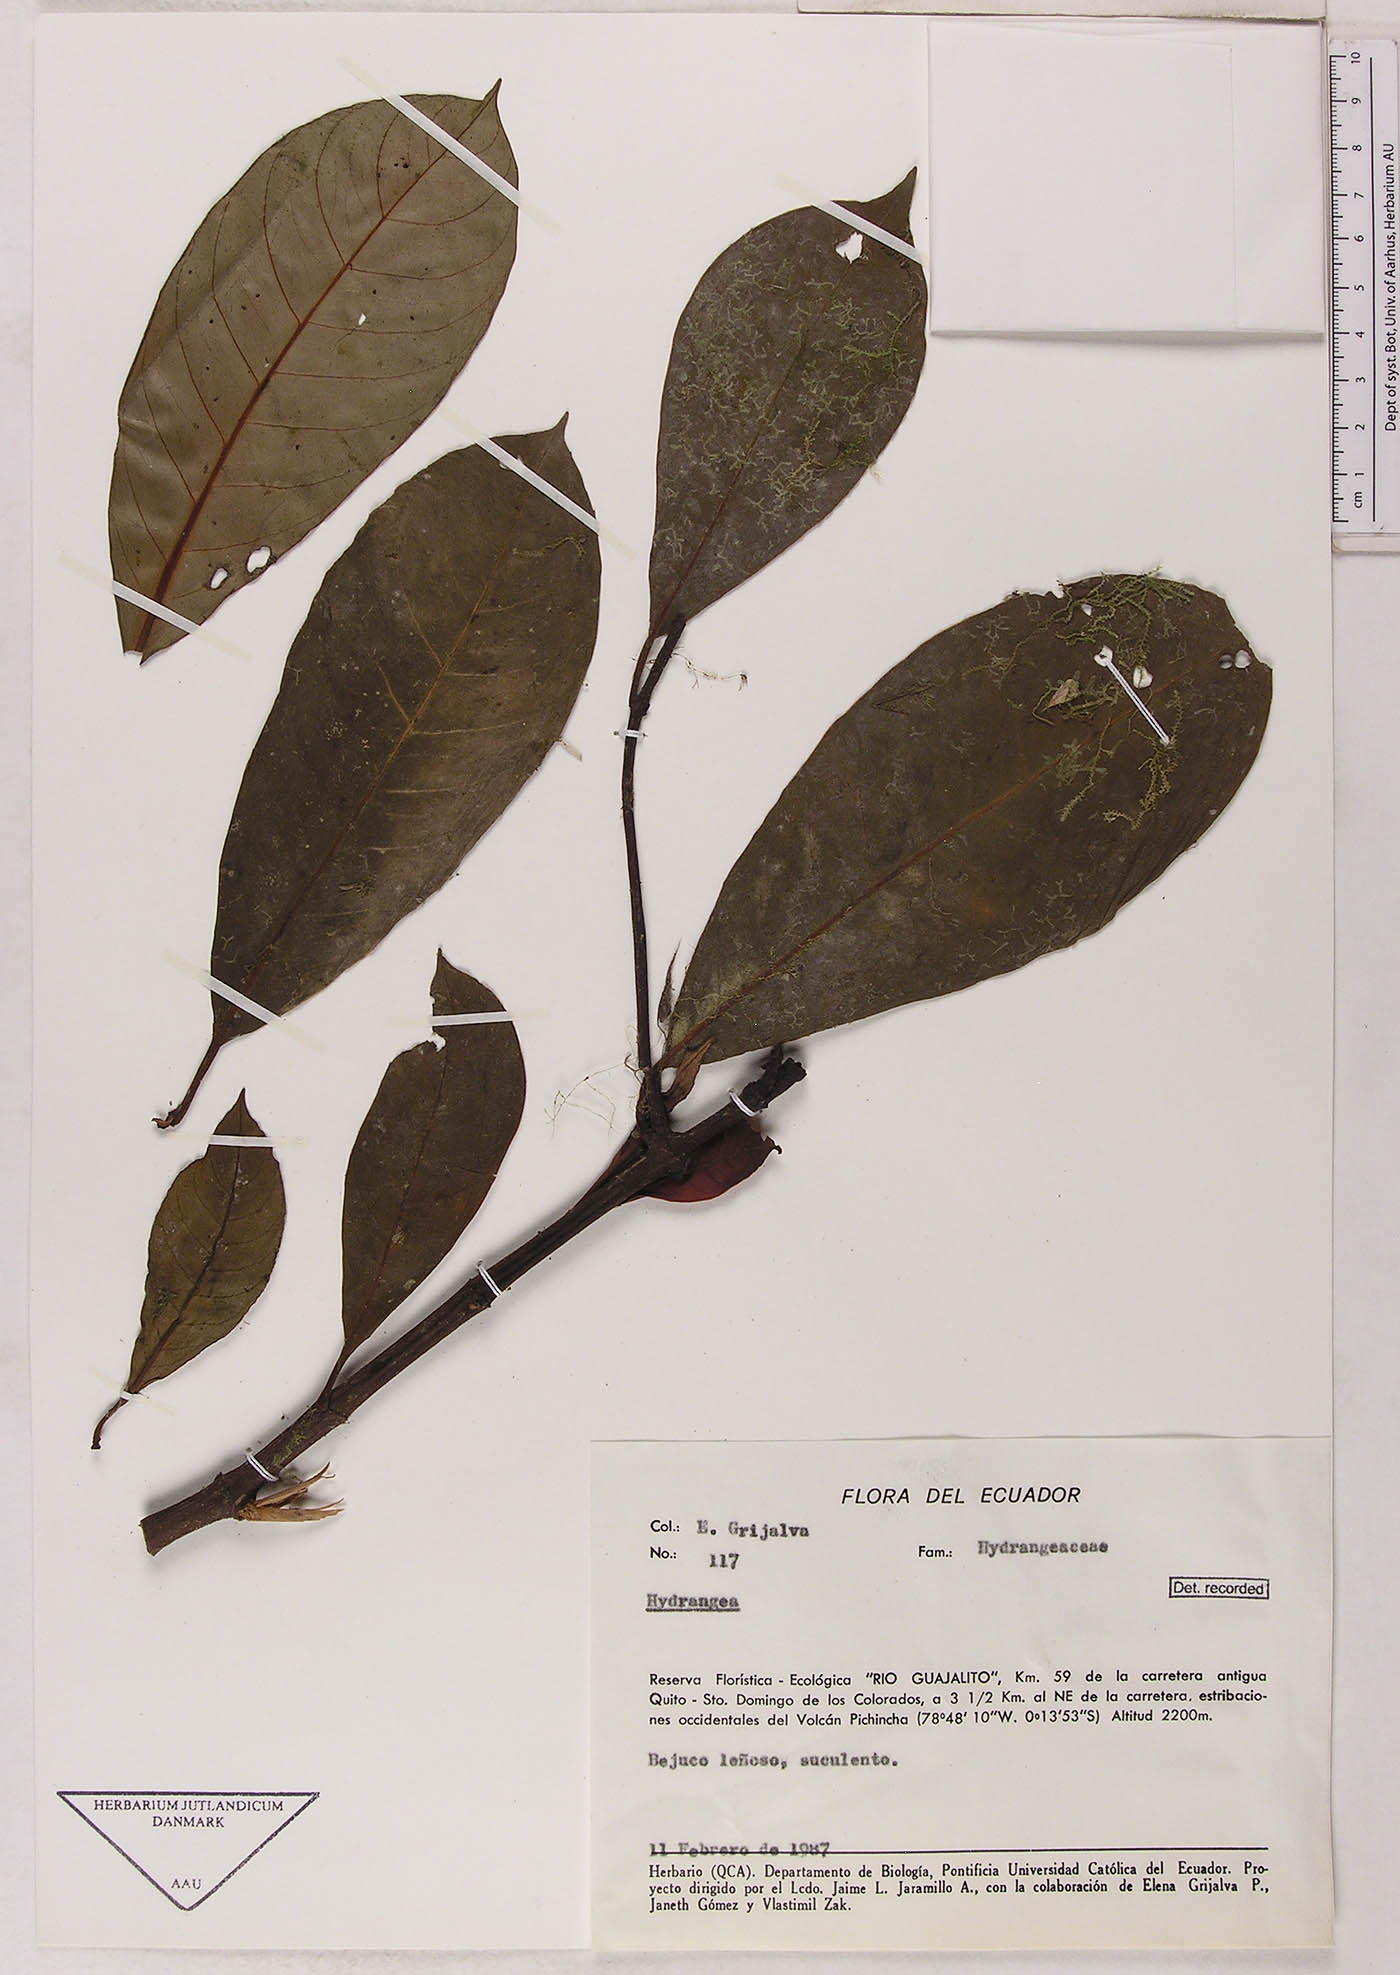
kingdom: Plantae
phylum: Tracheophyta
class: Magnoliopsida
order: Cornales
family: Hydrangeaceae
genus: Hydrangea
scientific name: Hydrangea
